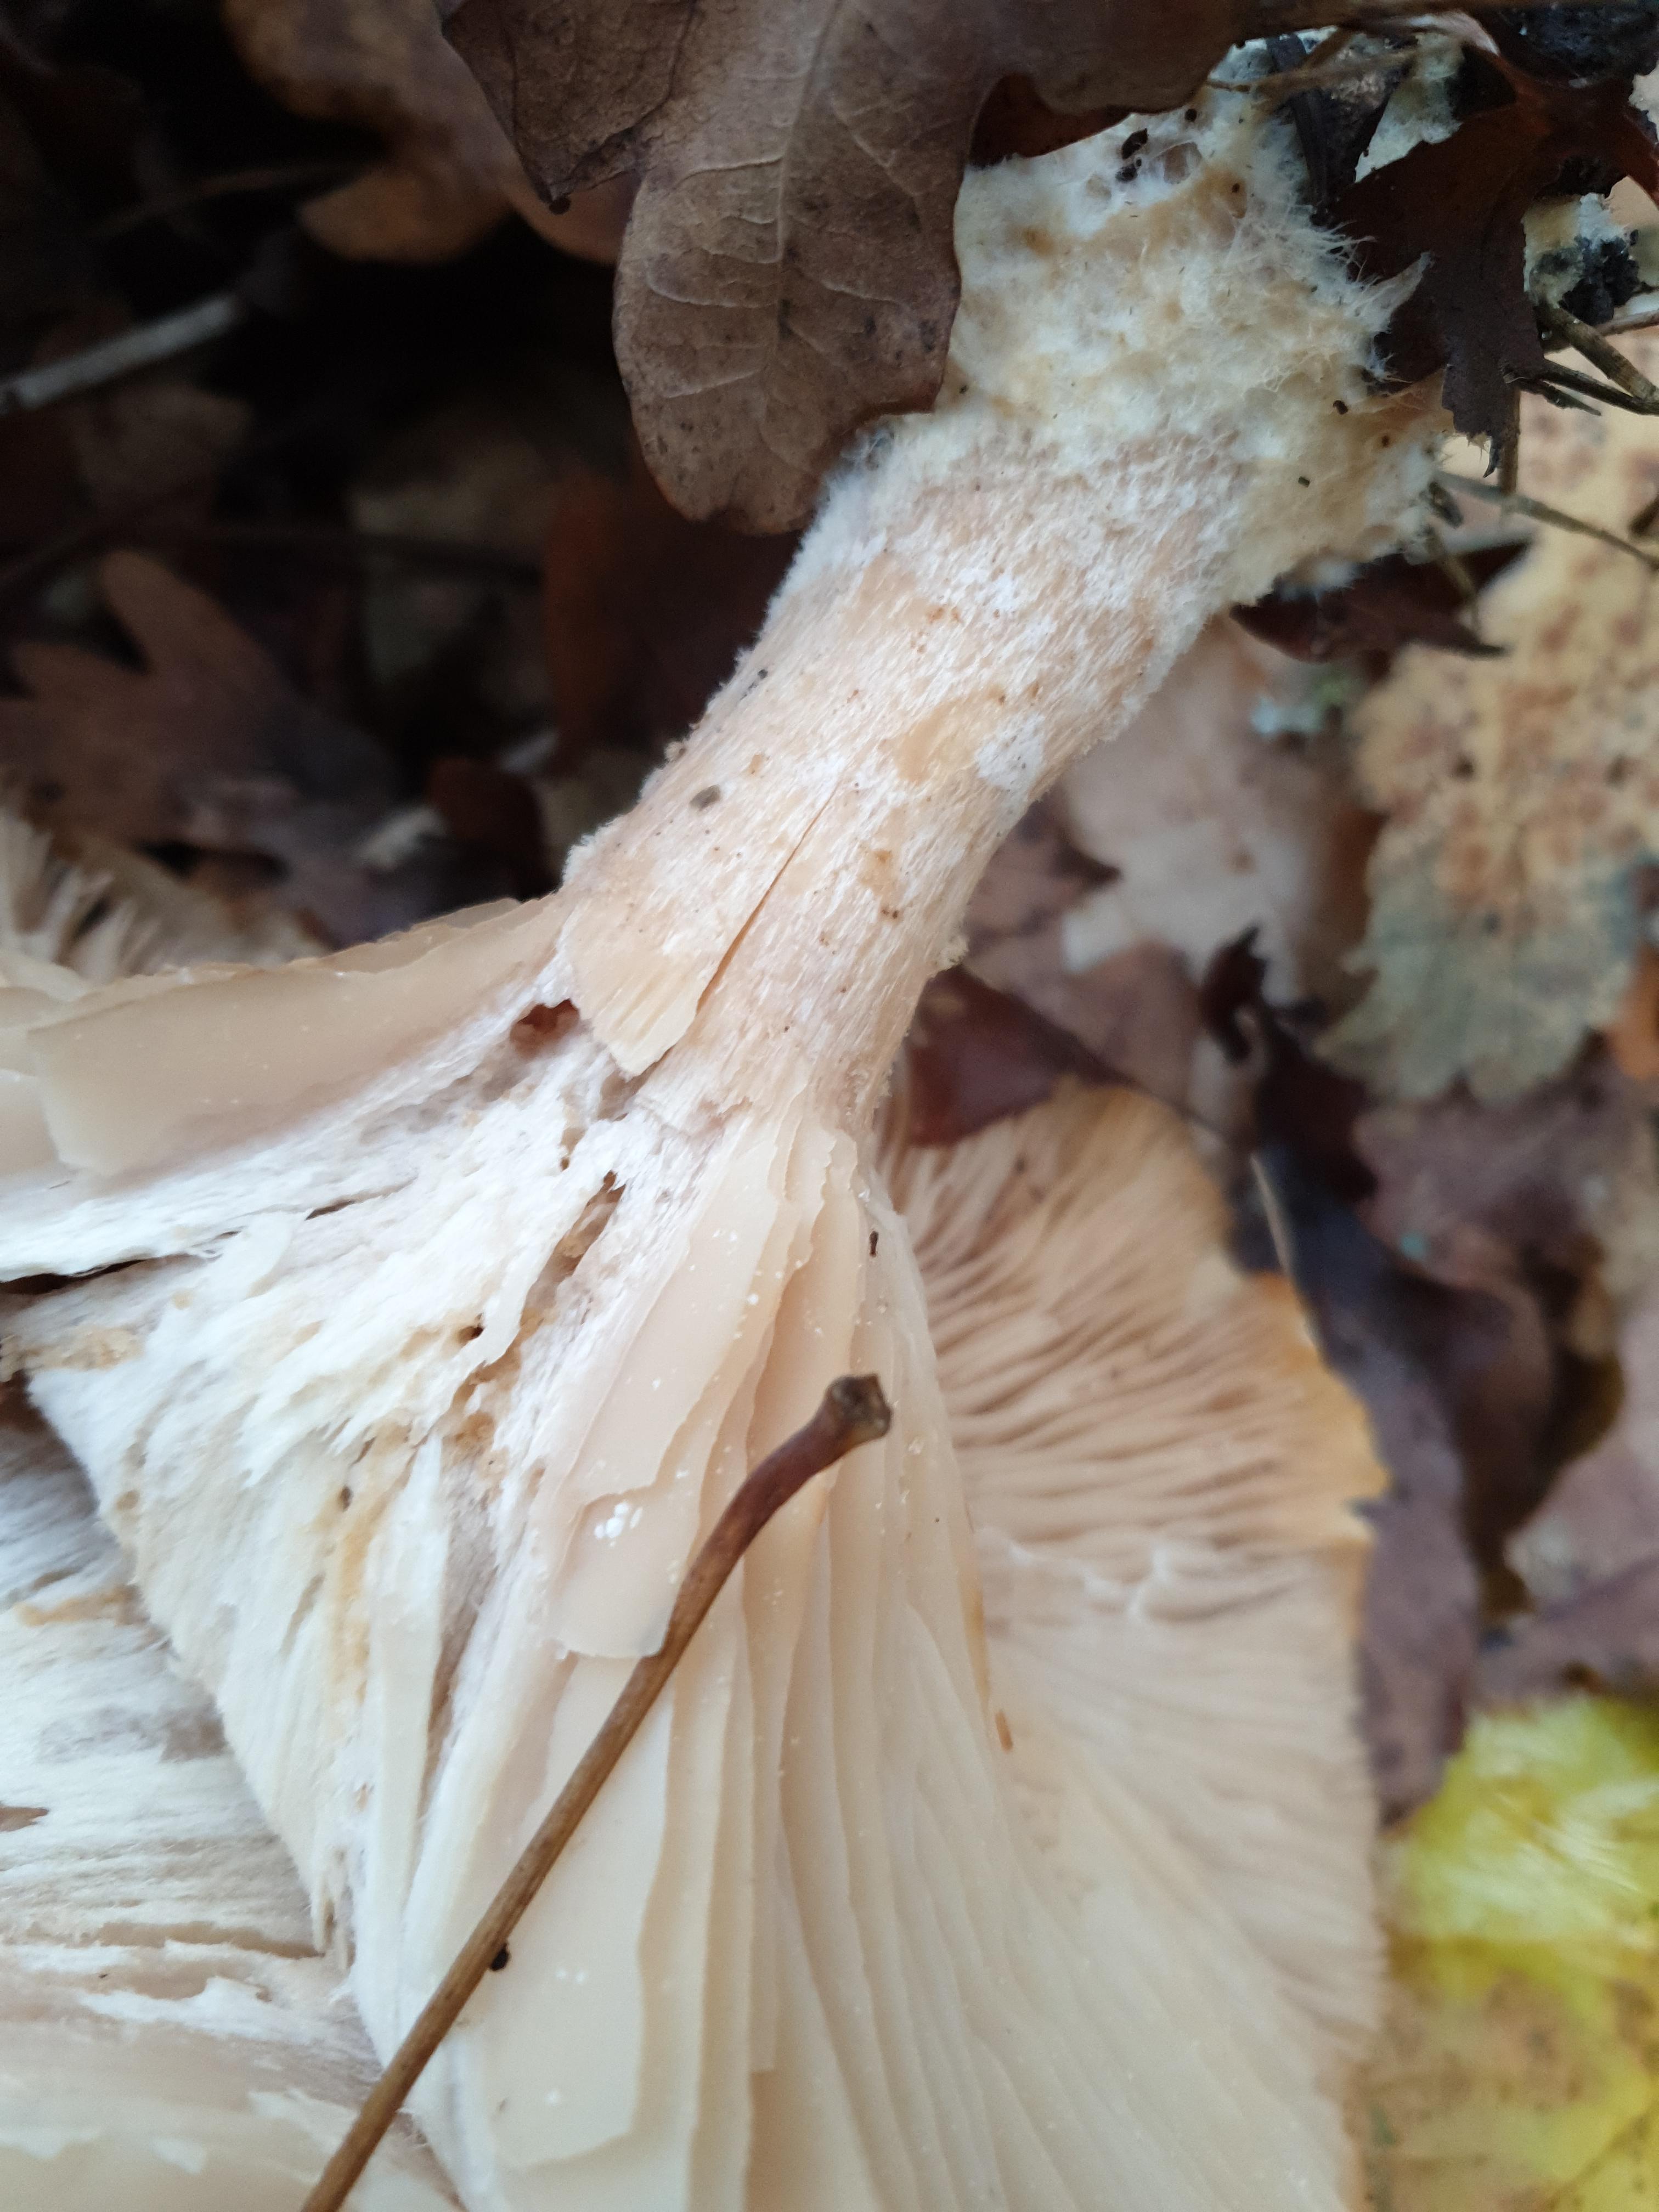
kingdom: Fungi
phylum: Basidiomycota
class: Agaricomycetes
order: Agaricales
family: Tricholomataceae
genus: Infundibulicybe
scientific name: Infundibulicybe geotropa
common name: stor tragthat
